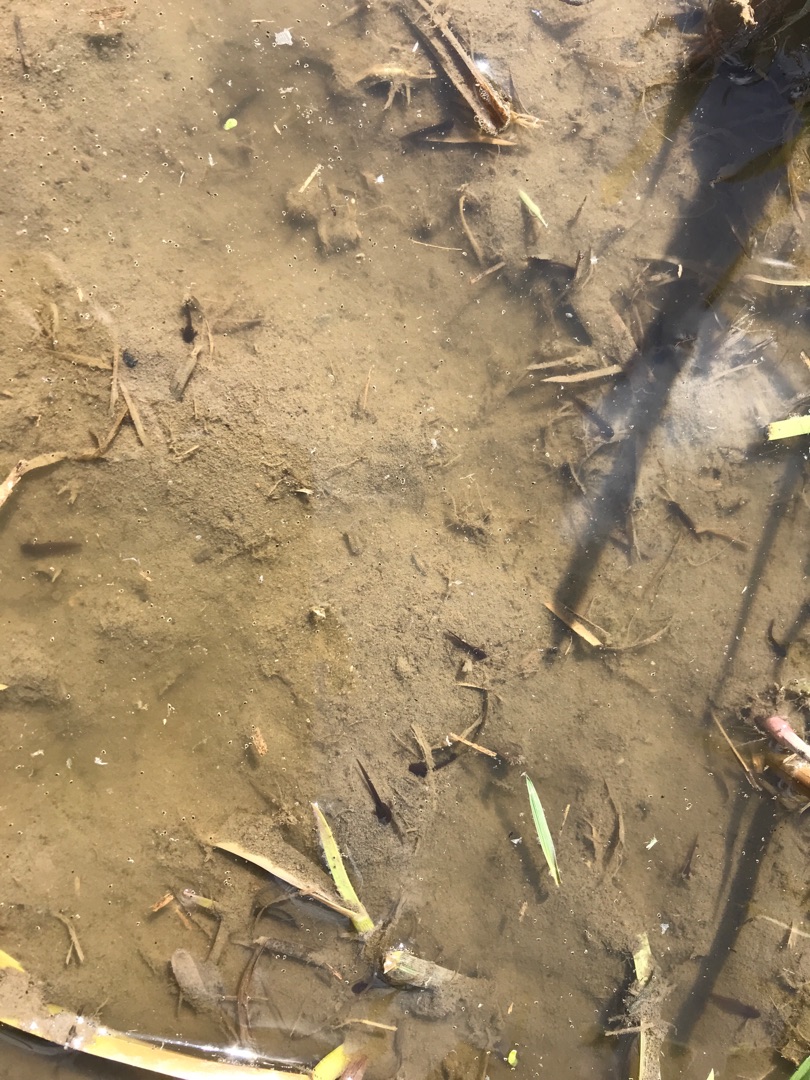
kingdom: Animalia
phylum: Chordata
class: Amphibia
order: Anura
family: Ranidae
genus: Rana
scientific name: Rana temporaria
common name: Butsnudet frø
